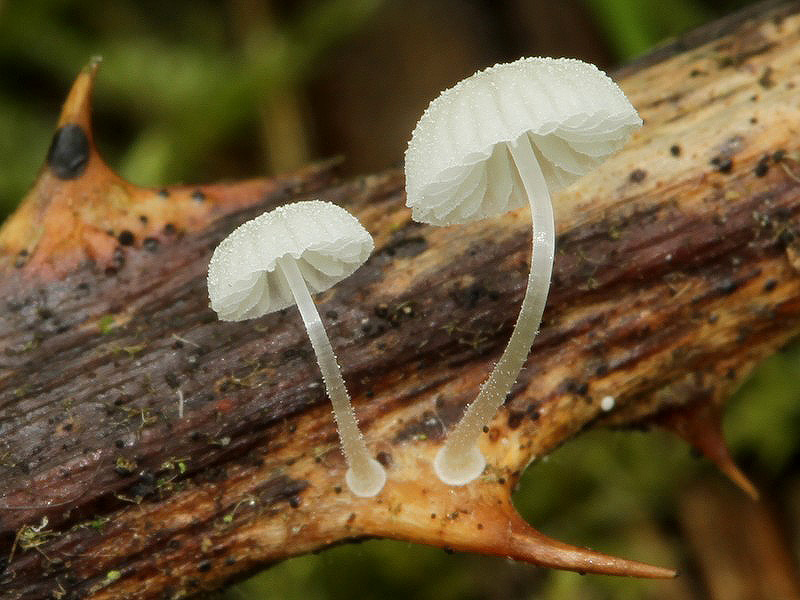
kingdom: Fungi
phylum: Basidiomycota
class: Agaricomycetes
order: Agaricales
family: Mycenaceae
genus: Mycena
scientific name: Mycena tenerrima
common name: pudret huesvamp
